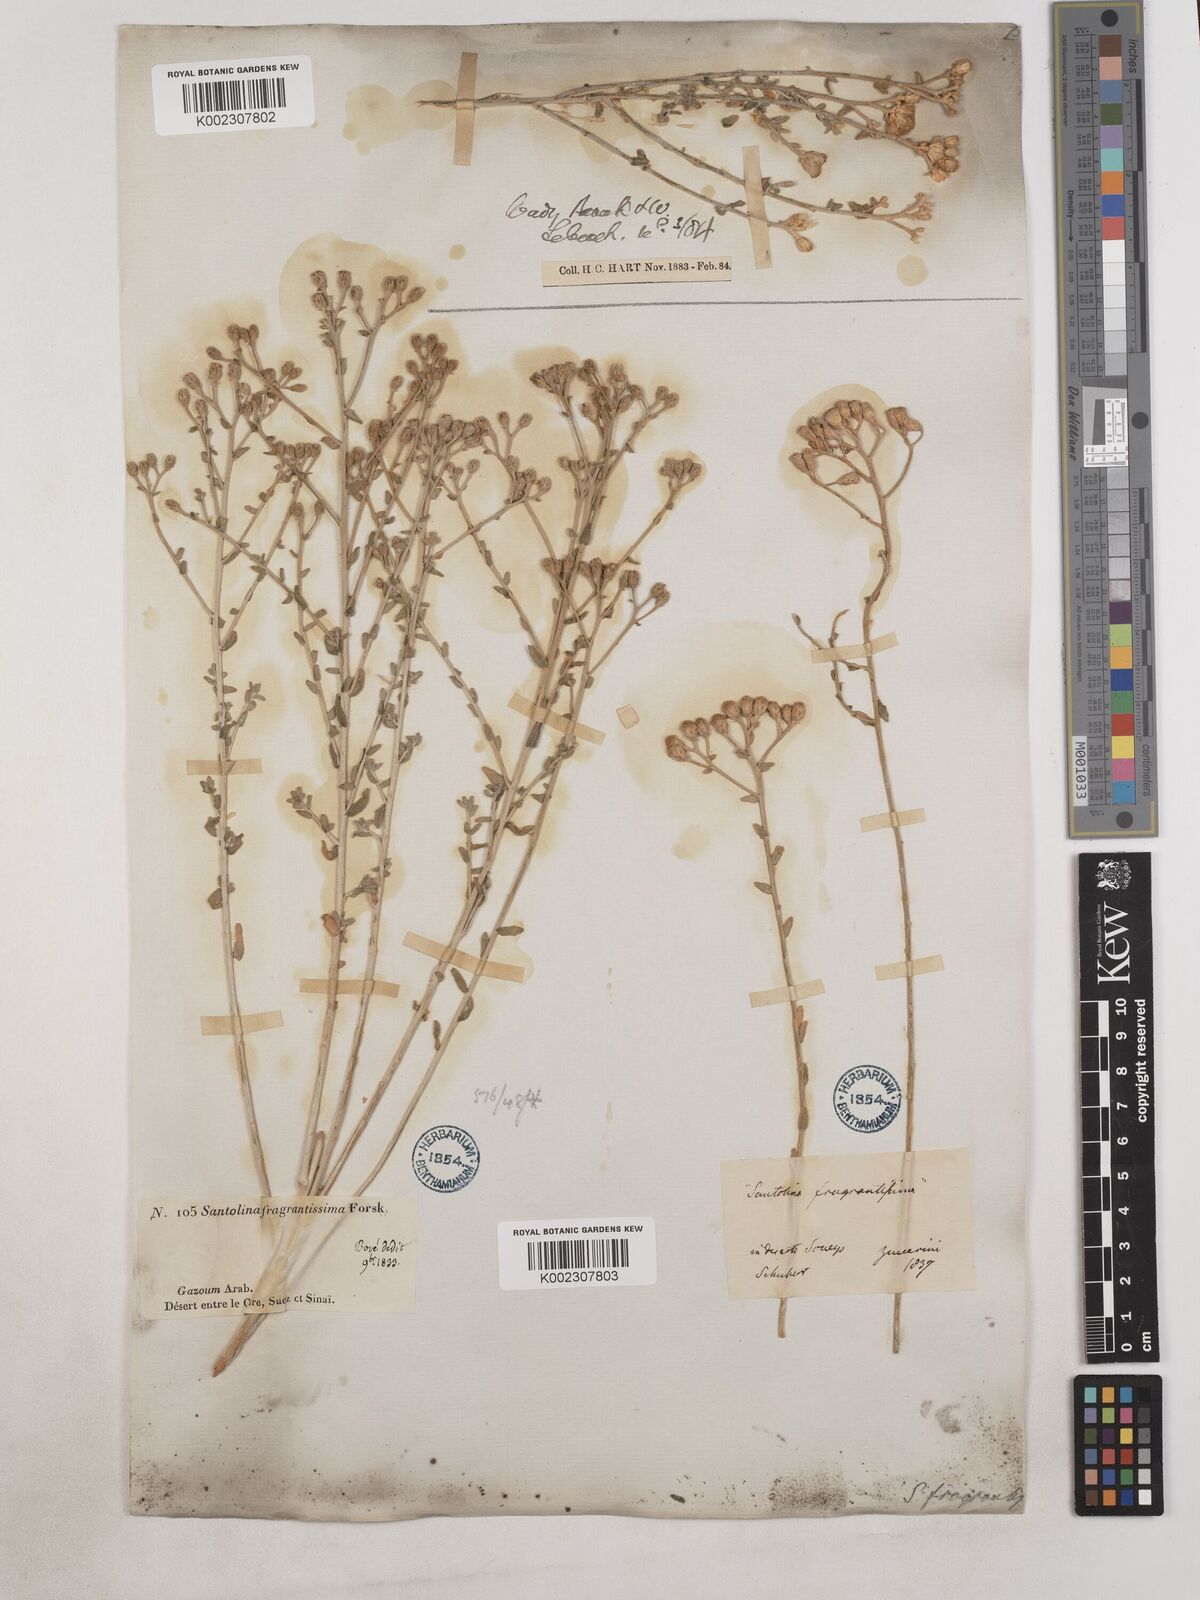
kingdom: Plantae
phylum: Tracheophyta
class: Magnoliopsida
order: Asterales
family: Asteraceae
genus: Achillea
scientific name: Achillea fragrantissima
